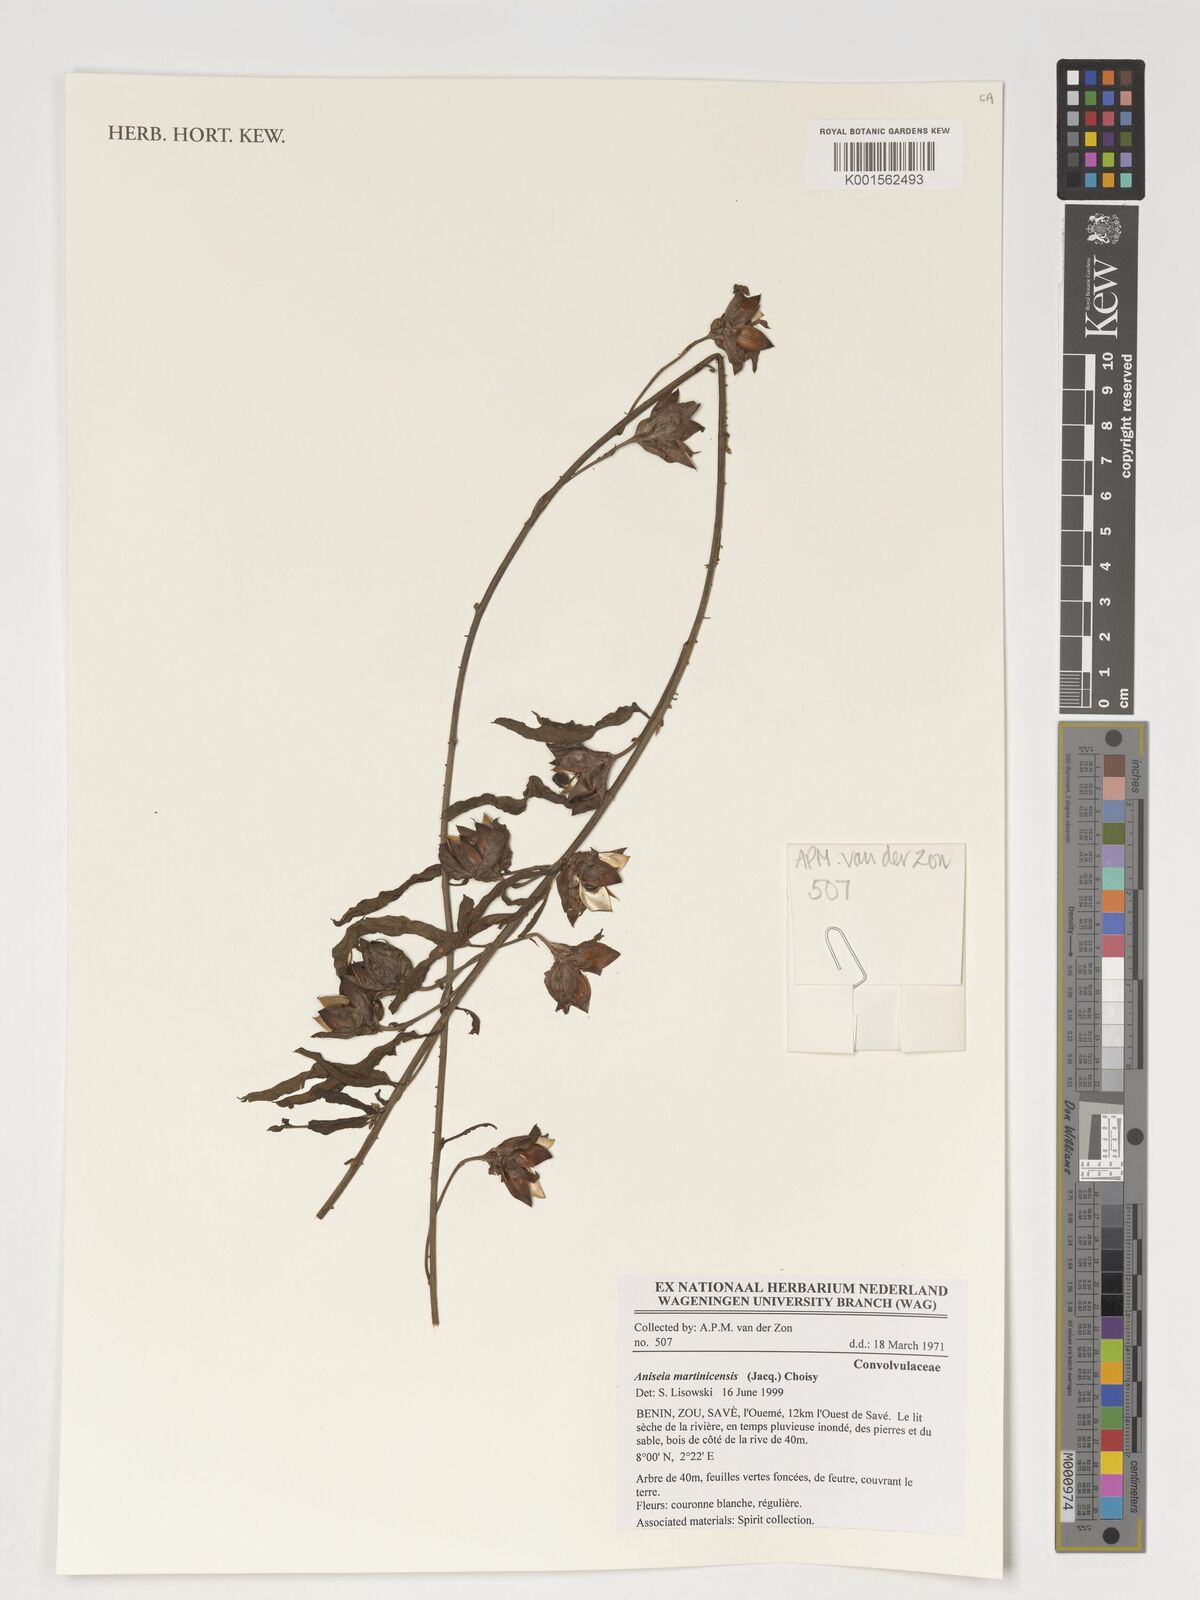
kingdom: Plantae
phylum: Tracheophyta
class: Magnoliopsida
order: Solanales
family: Convolvulaceae
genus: Aniseia
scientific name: Aniseia martinicensis
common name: Kulayadambu
